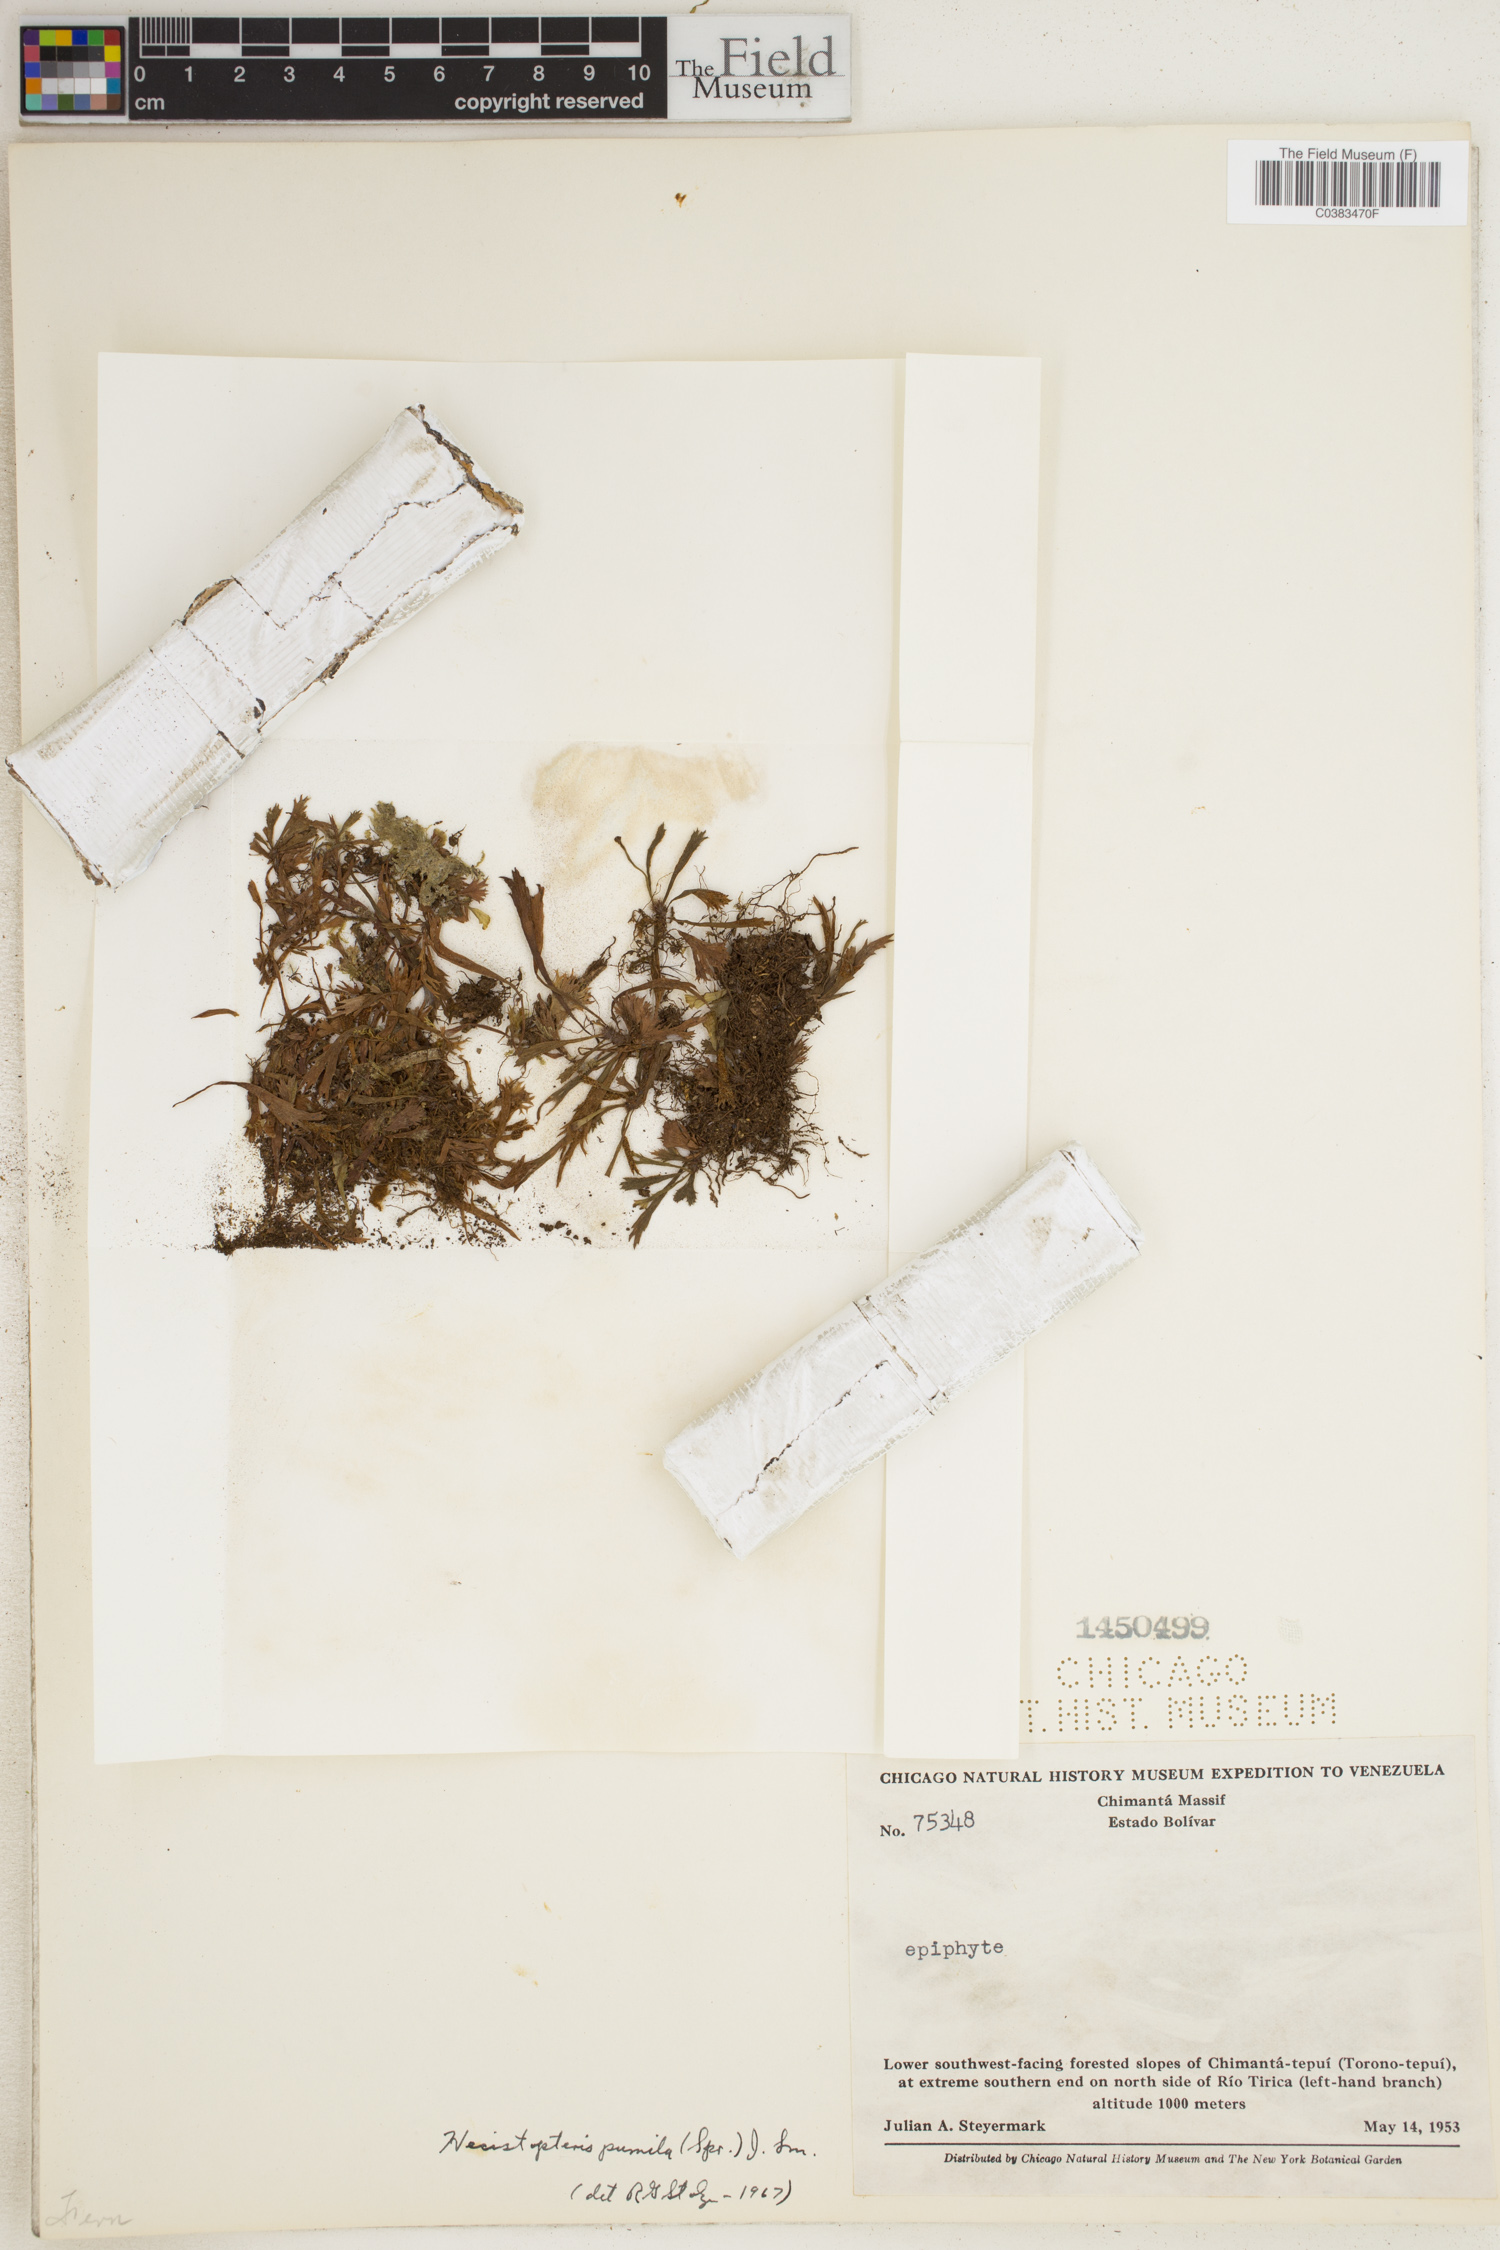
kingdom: Plantae
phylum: Tracheophyta
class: Polypodiopsida
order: Polypodiales
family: Pteridaceae
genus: Hecistopteris
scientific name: Hecistopteris pumila
